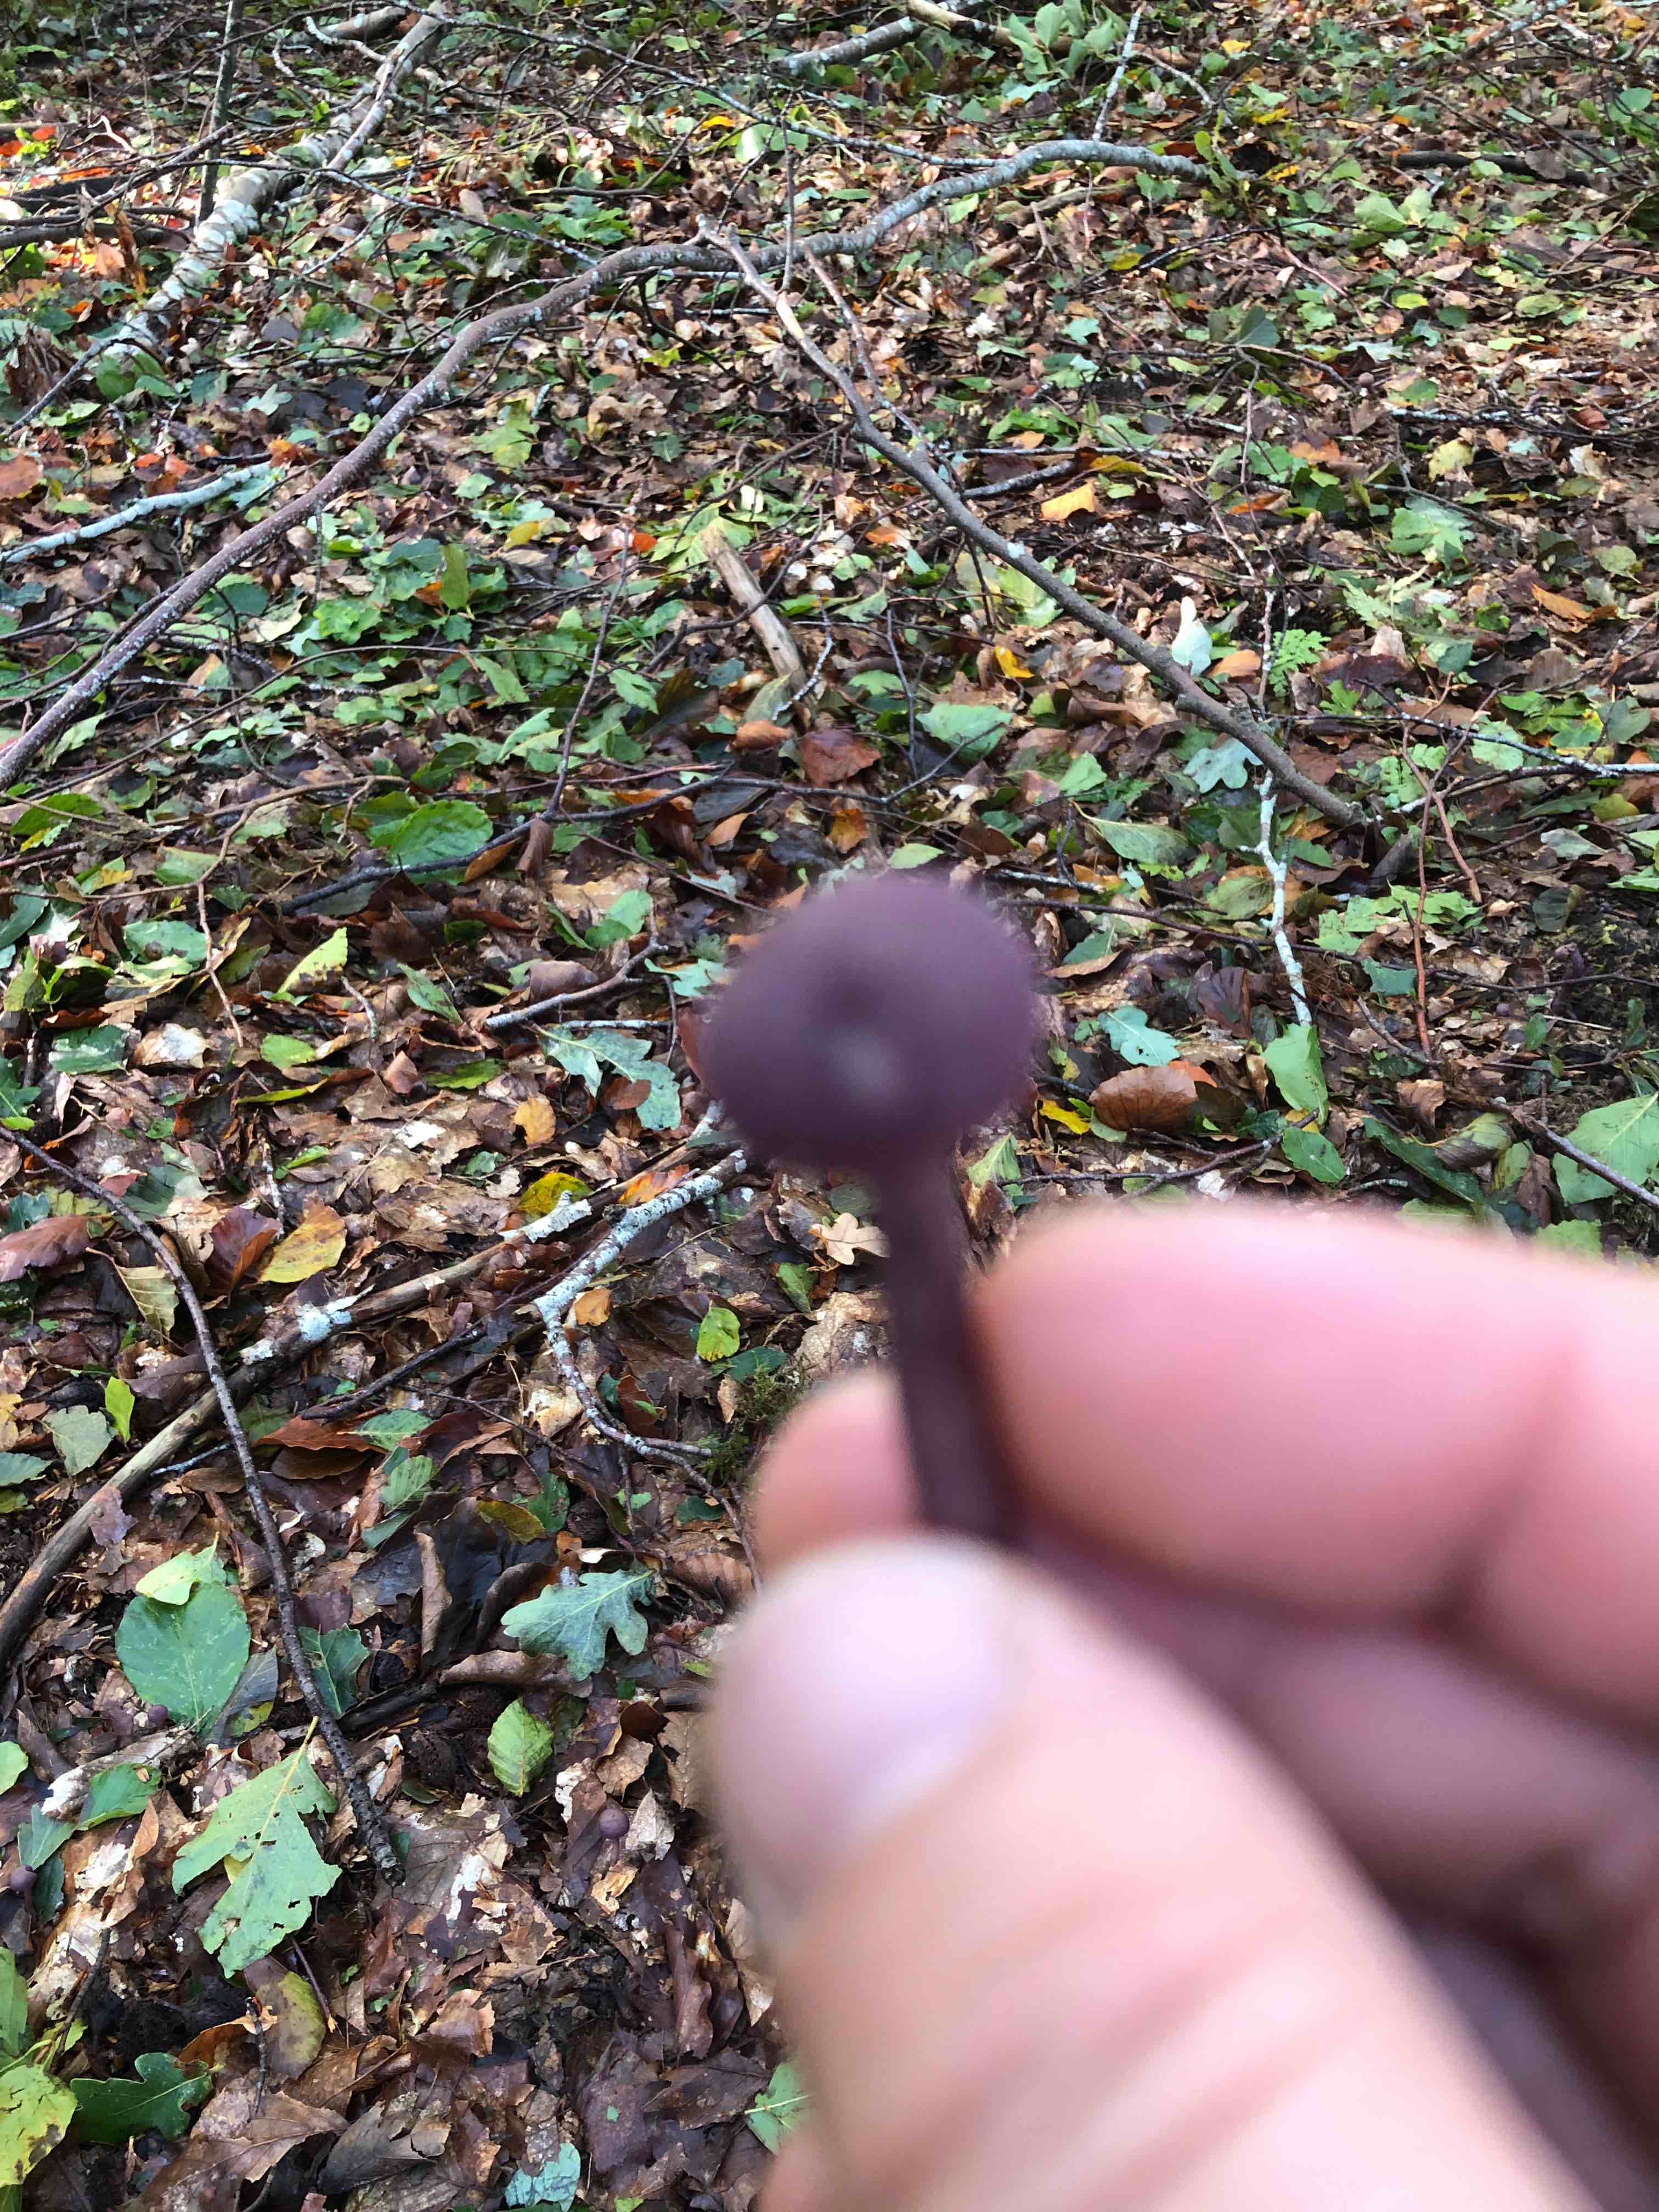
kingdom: Fungi
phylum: Basidiomycota
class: Agaricomycetes
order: Agaricales
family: Hydnangiaceae
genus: Laccaria
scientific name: Laccaria amethystina
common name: violet ametysthat
